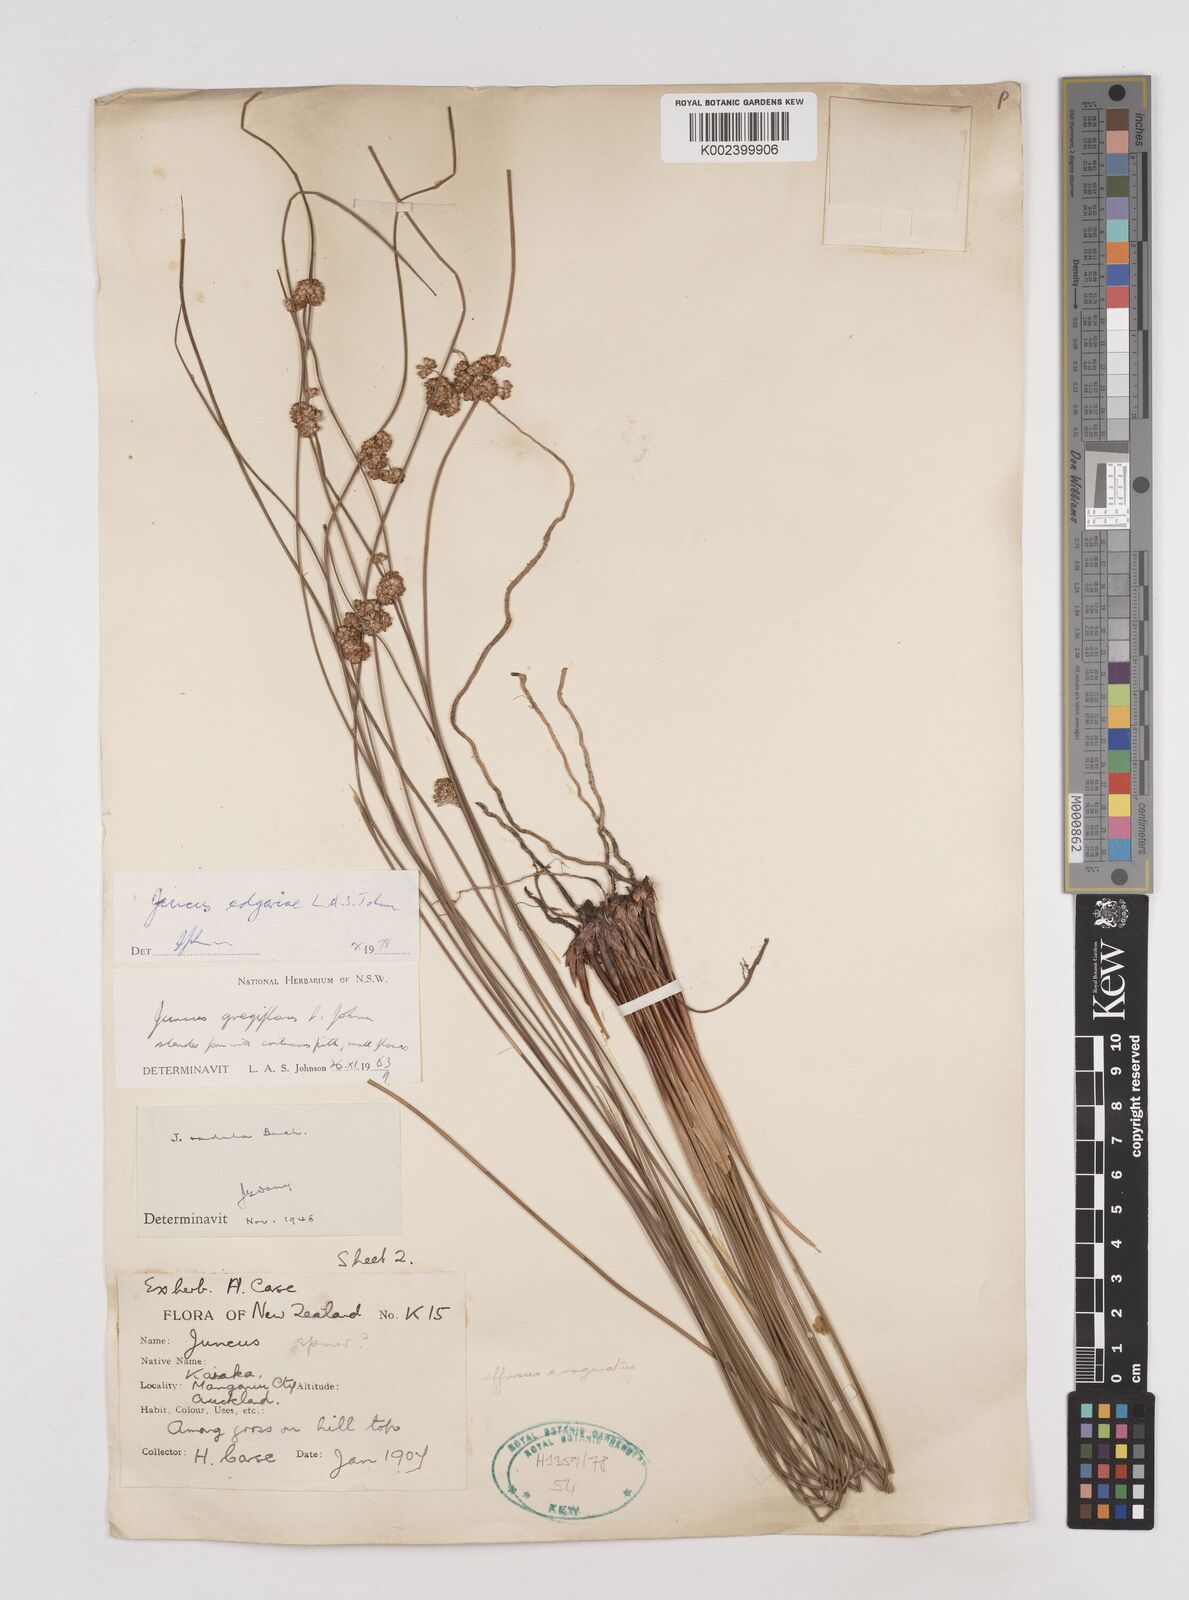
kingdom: Plantae
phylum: Tracheophyta
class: Liliopsida
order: Poales
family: Juncaceae
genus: Juncus
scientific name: Juncus edgariae
